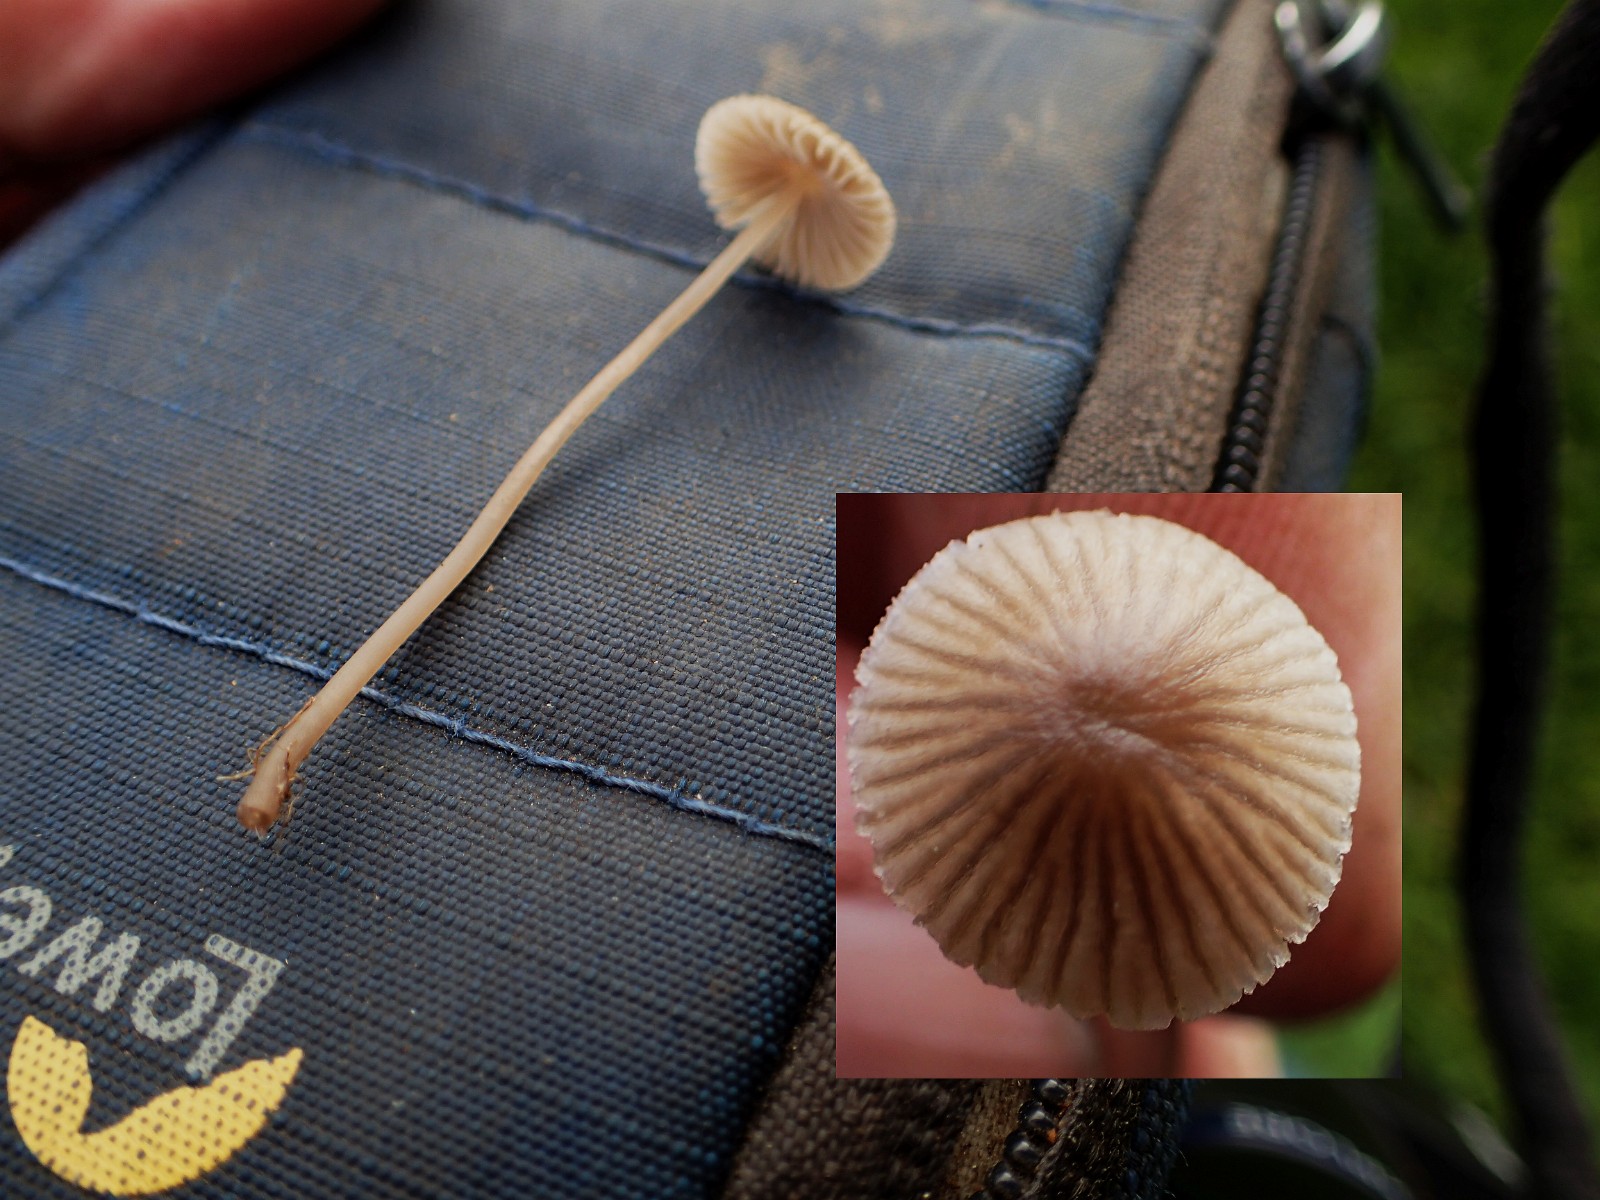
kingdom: Fungi
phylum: Basidiomycota
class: Agaricomycetes
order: Agaricales
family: Mycenaceae
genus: Mycena
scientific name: Mycena
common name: huesvamp
